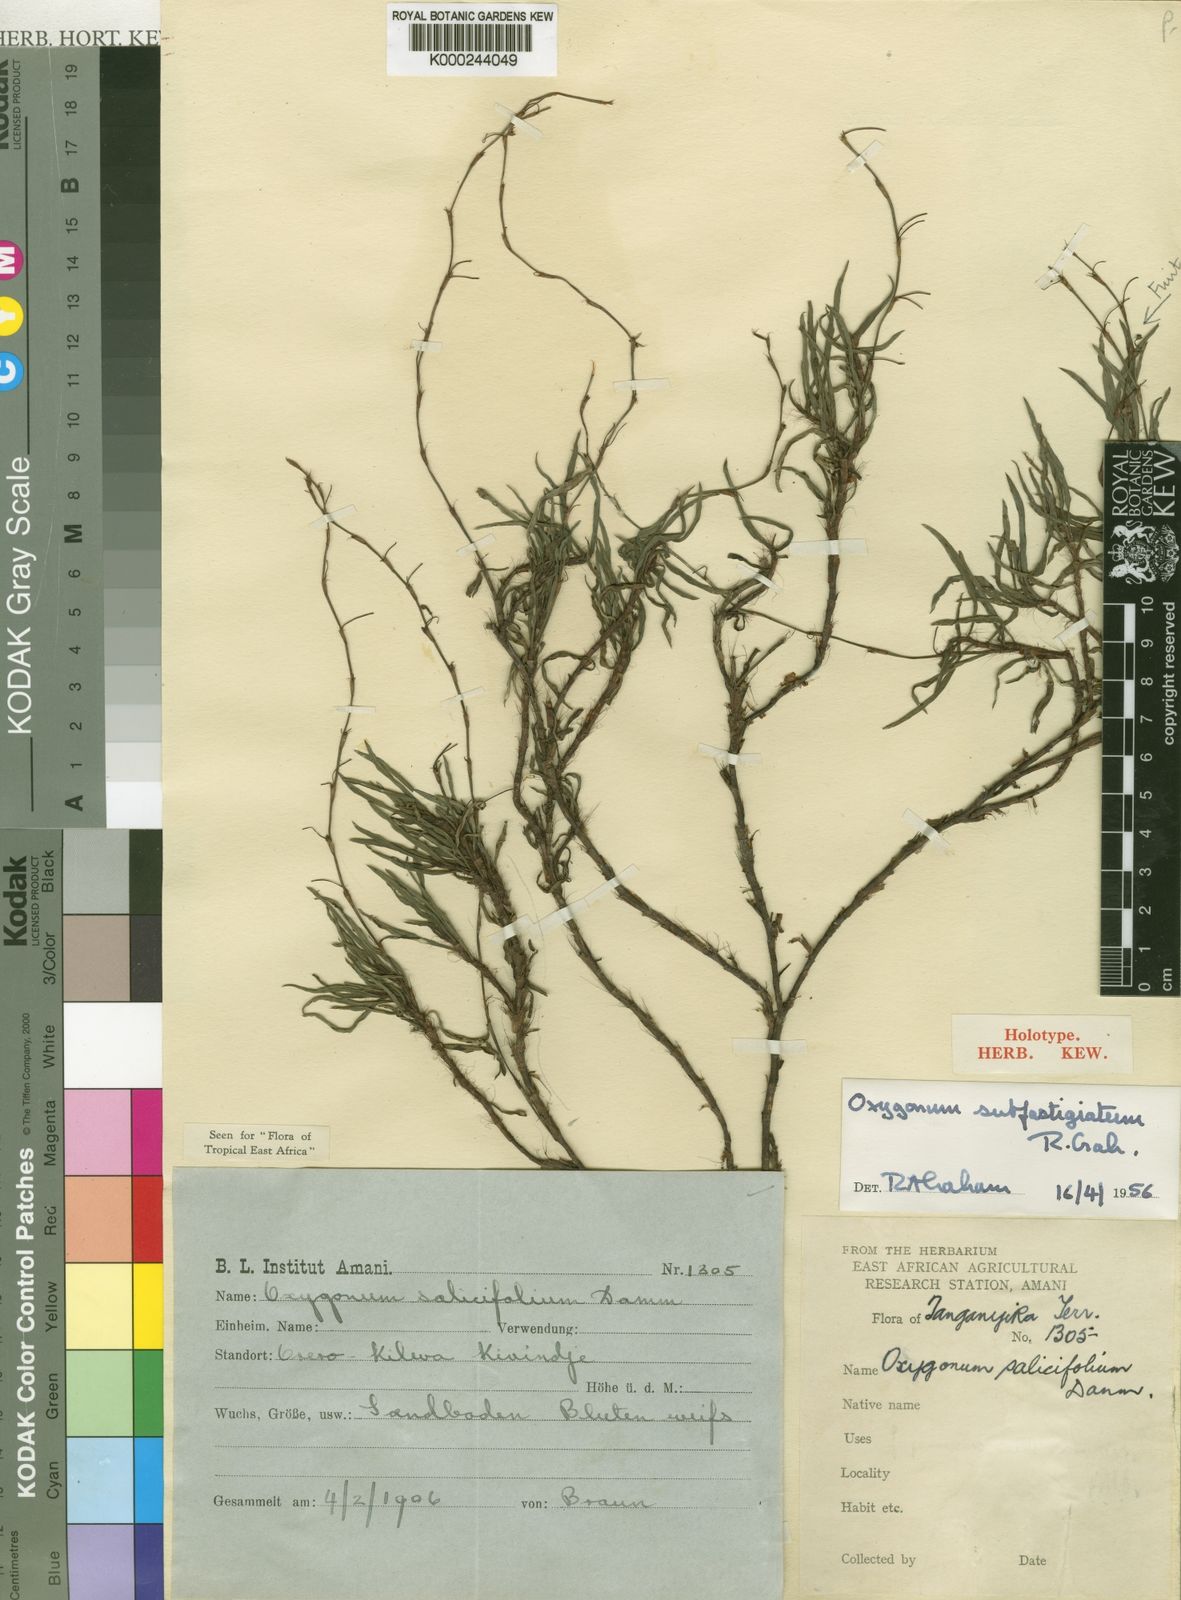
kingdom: Plantae
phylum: Tracheophyta
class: Magnoliopsida
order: Caryophyllales
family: Polygonaceae
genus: Oxygonum
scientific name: Oxygonum subfastigiatum
